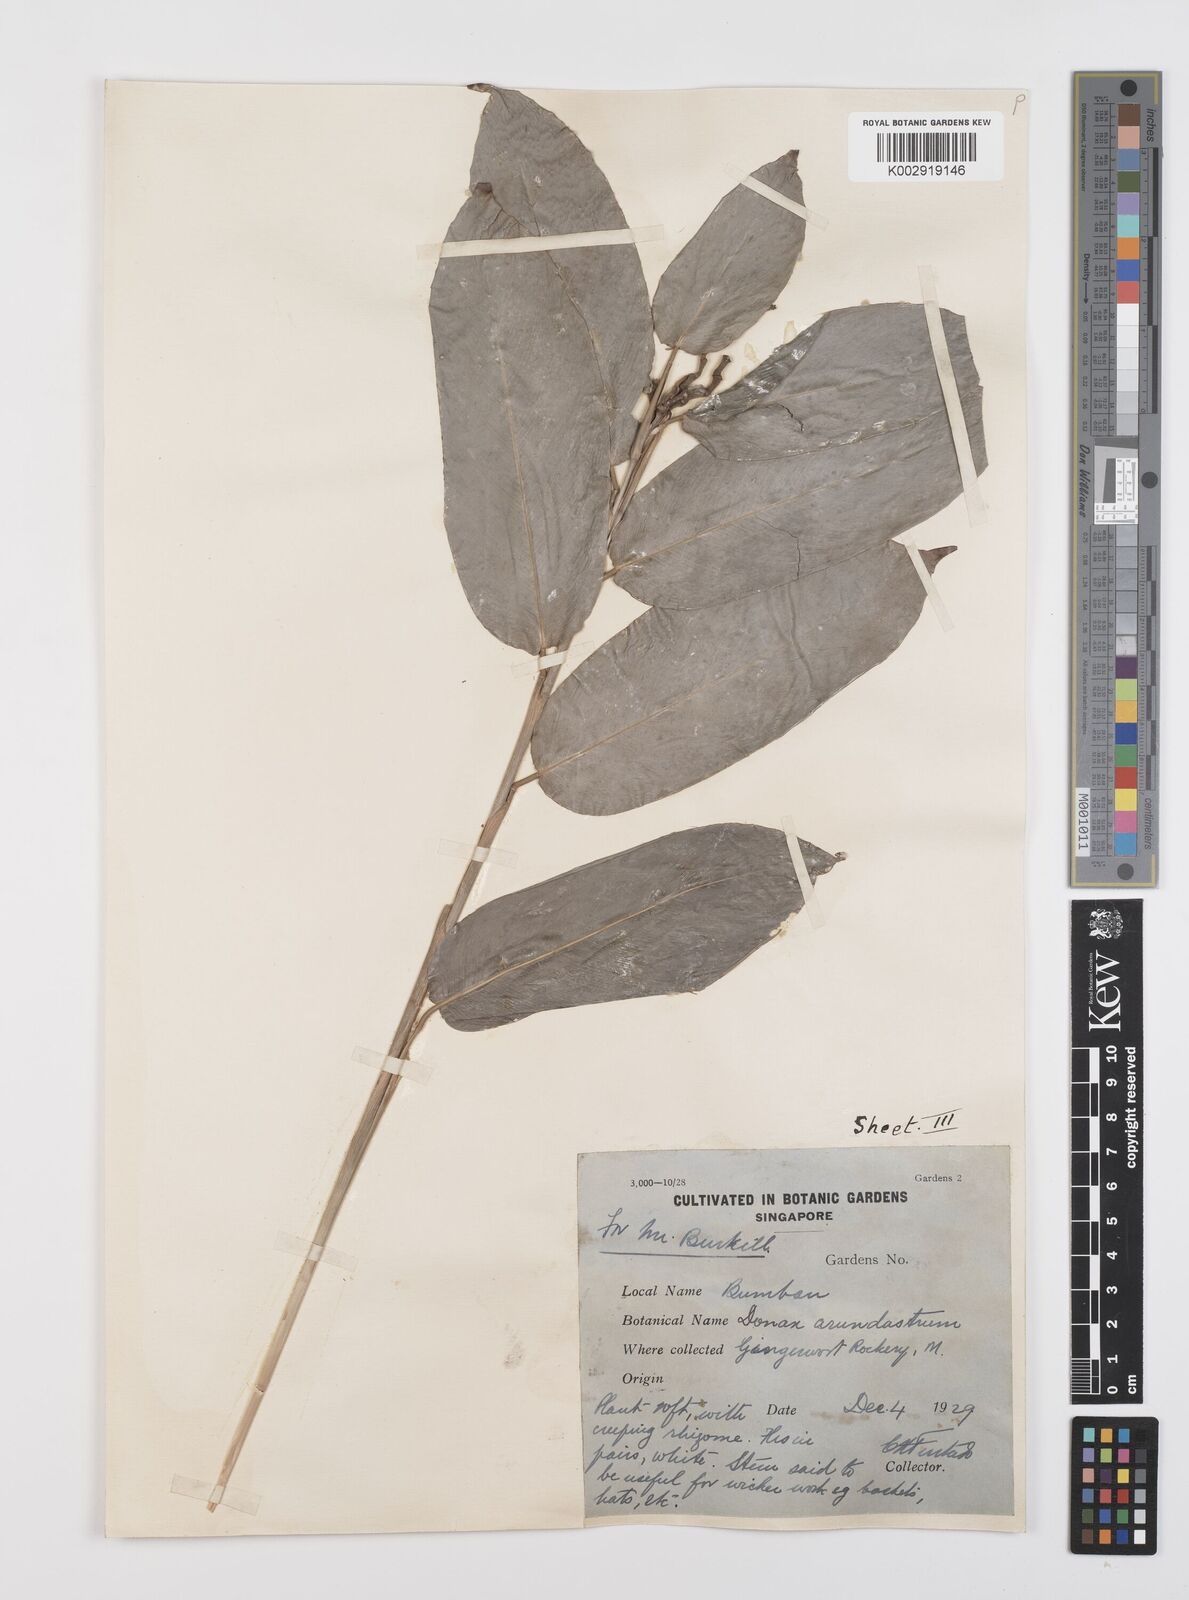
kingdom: Plantae
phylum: Tracheophyta
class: Liliopsida
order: Zingiberales
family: Marantaceae
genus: Trachyphrynium
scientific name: Trachyphrynium braunianum
